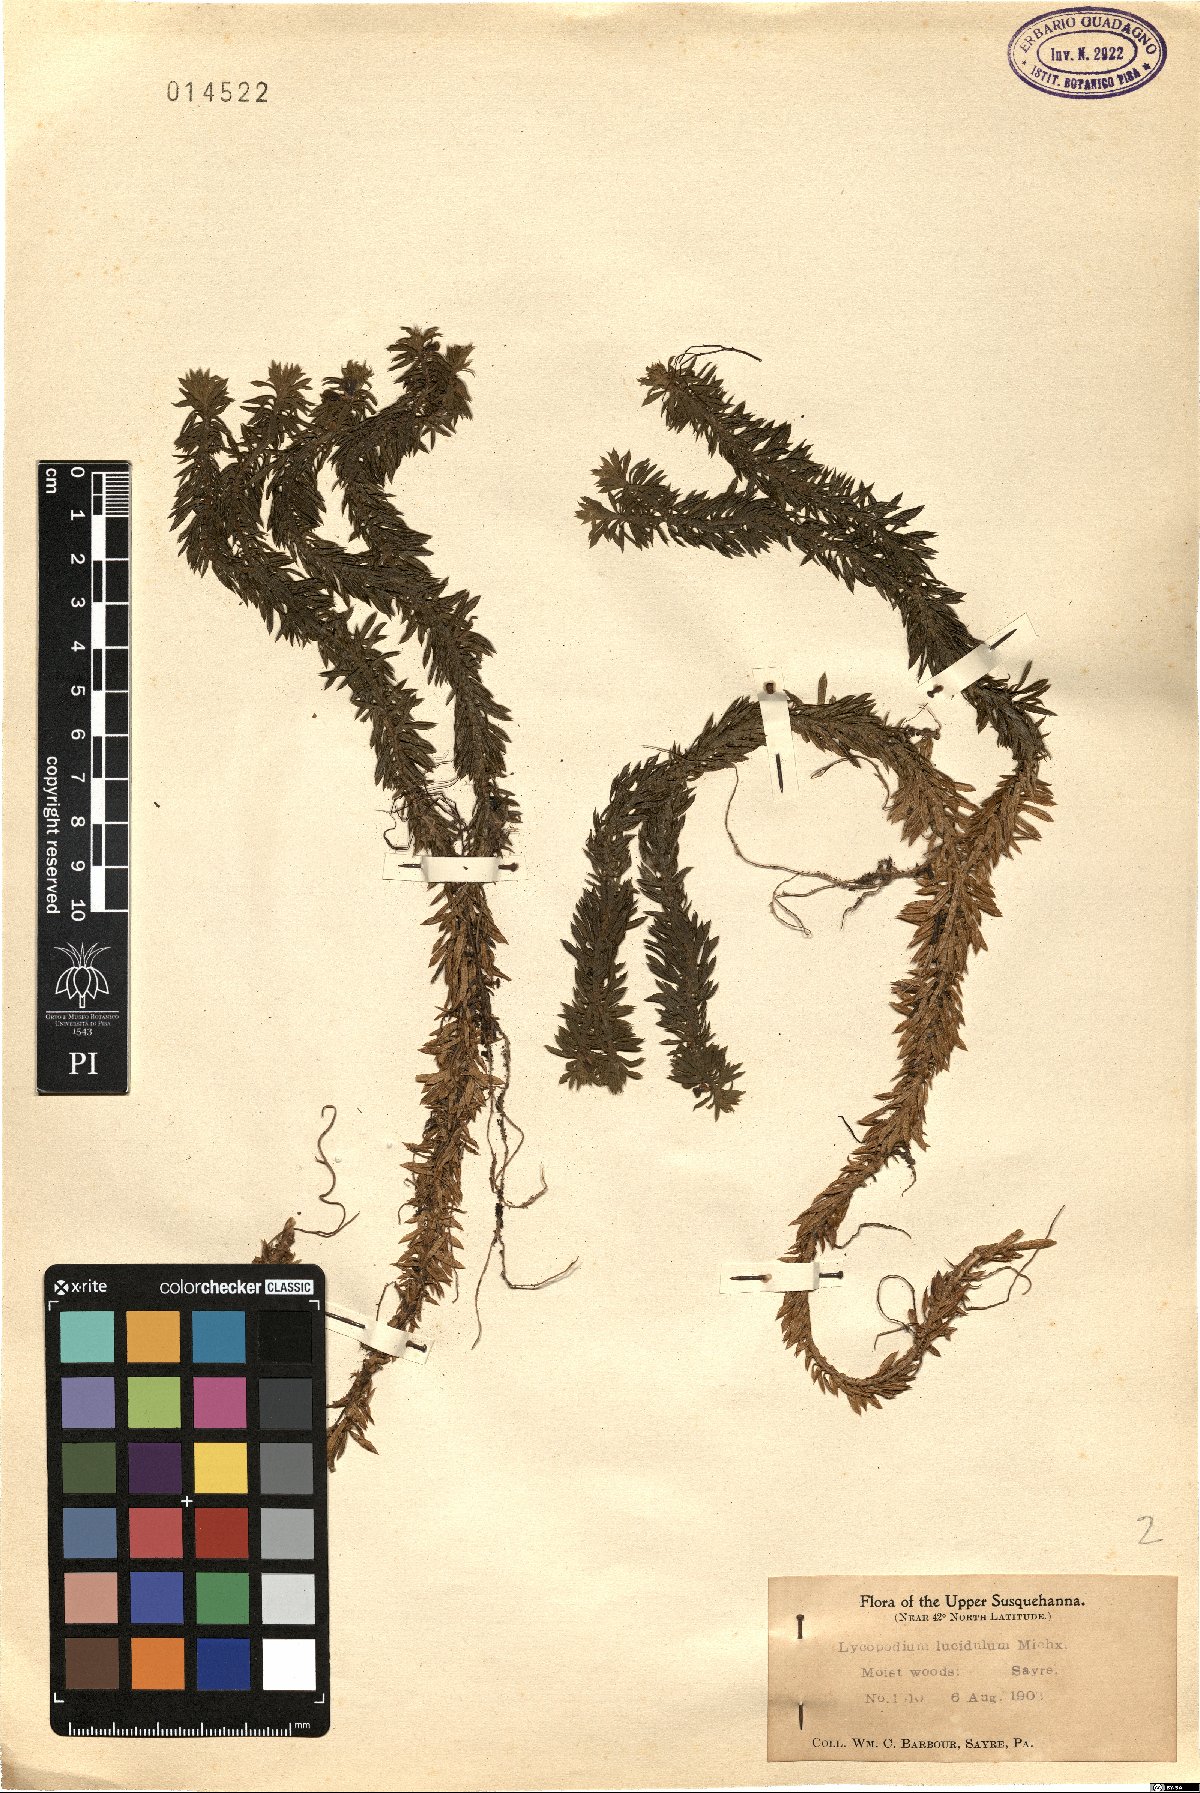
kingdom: Plantae
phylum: Tracheophyta
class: Lycopodiopsida
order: Lycopodiales
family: Lycopodiaceae
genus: Huperzia
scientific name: Huperzia lucidula
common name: Shining clubmoss
